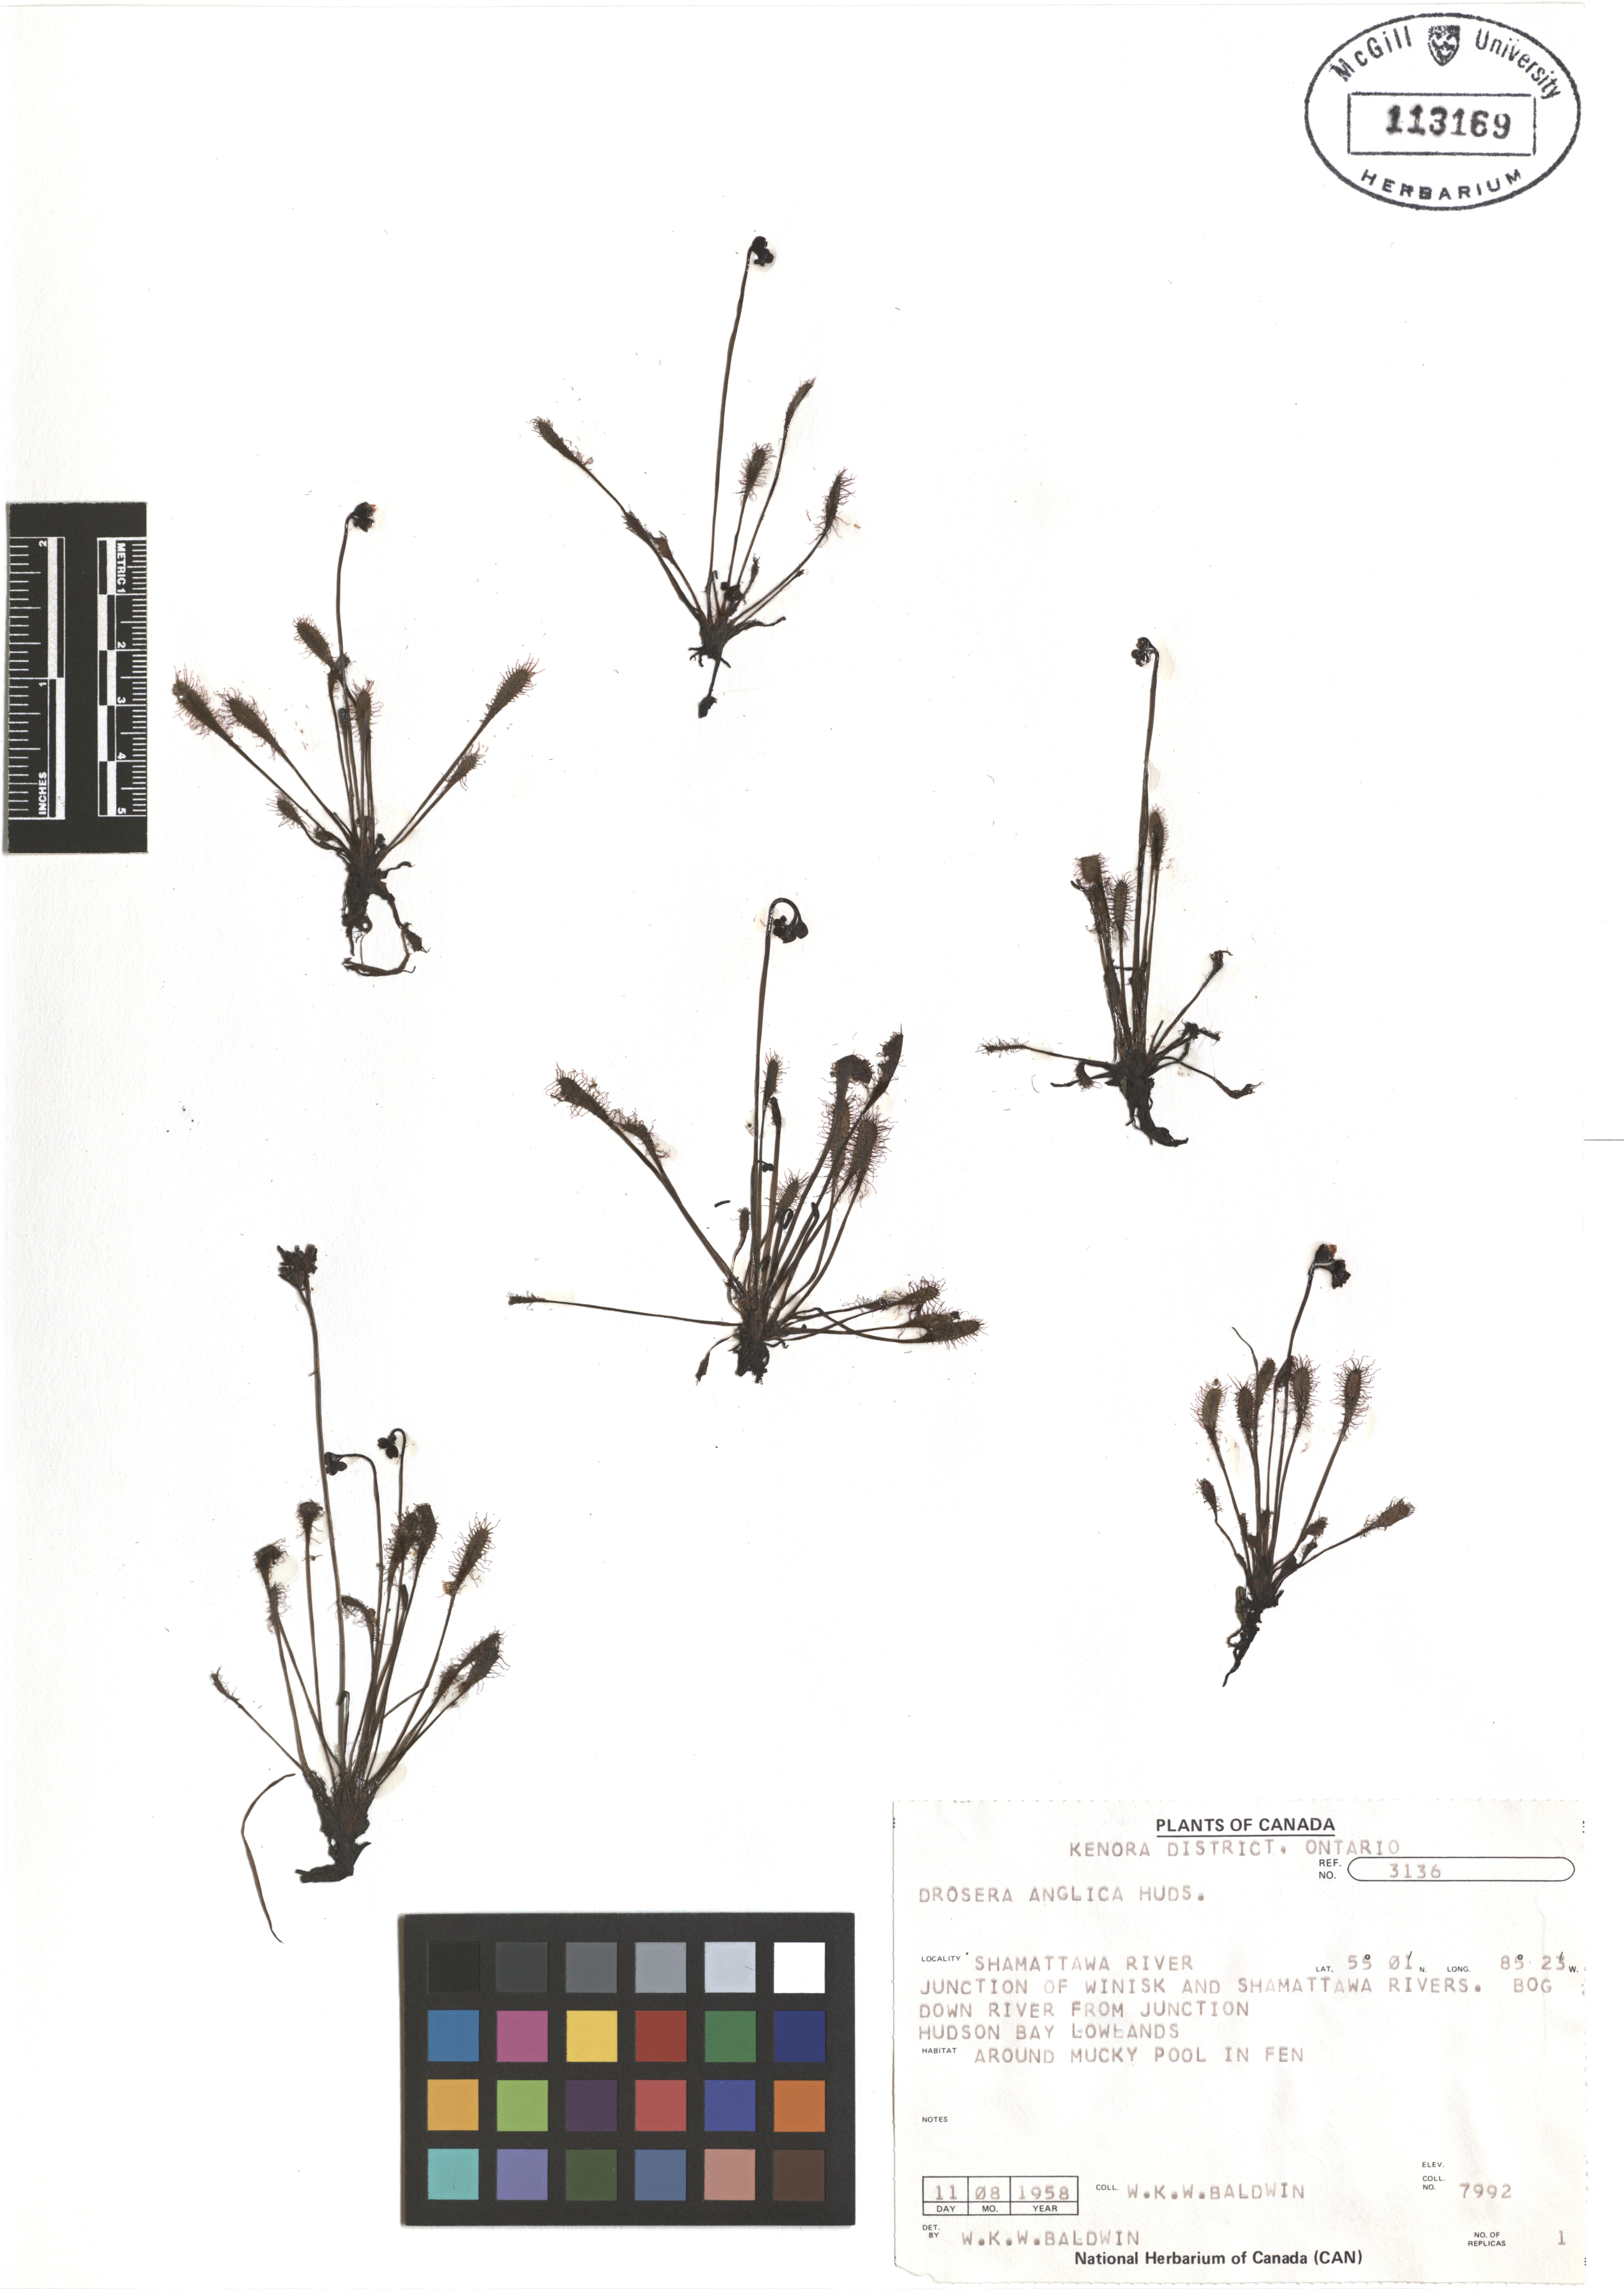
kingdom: Plantae
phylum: Tracheophyta
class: Magnoliopsida
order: Caryophyllales
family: Droseraceae
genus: Drosera
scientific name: Drosera anglica
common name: Great sundew
